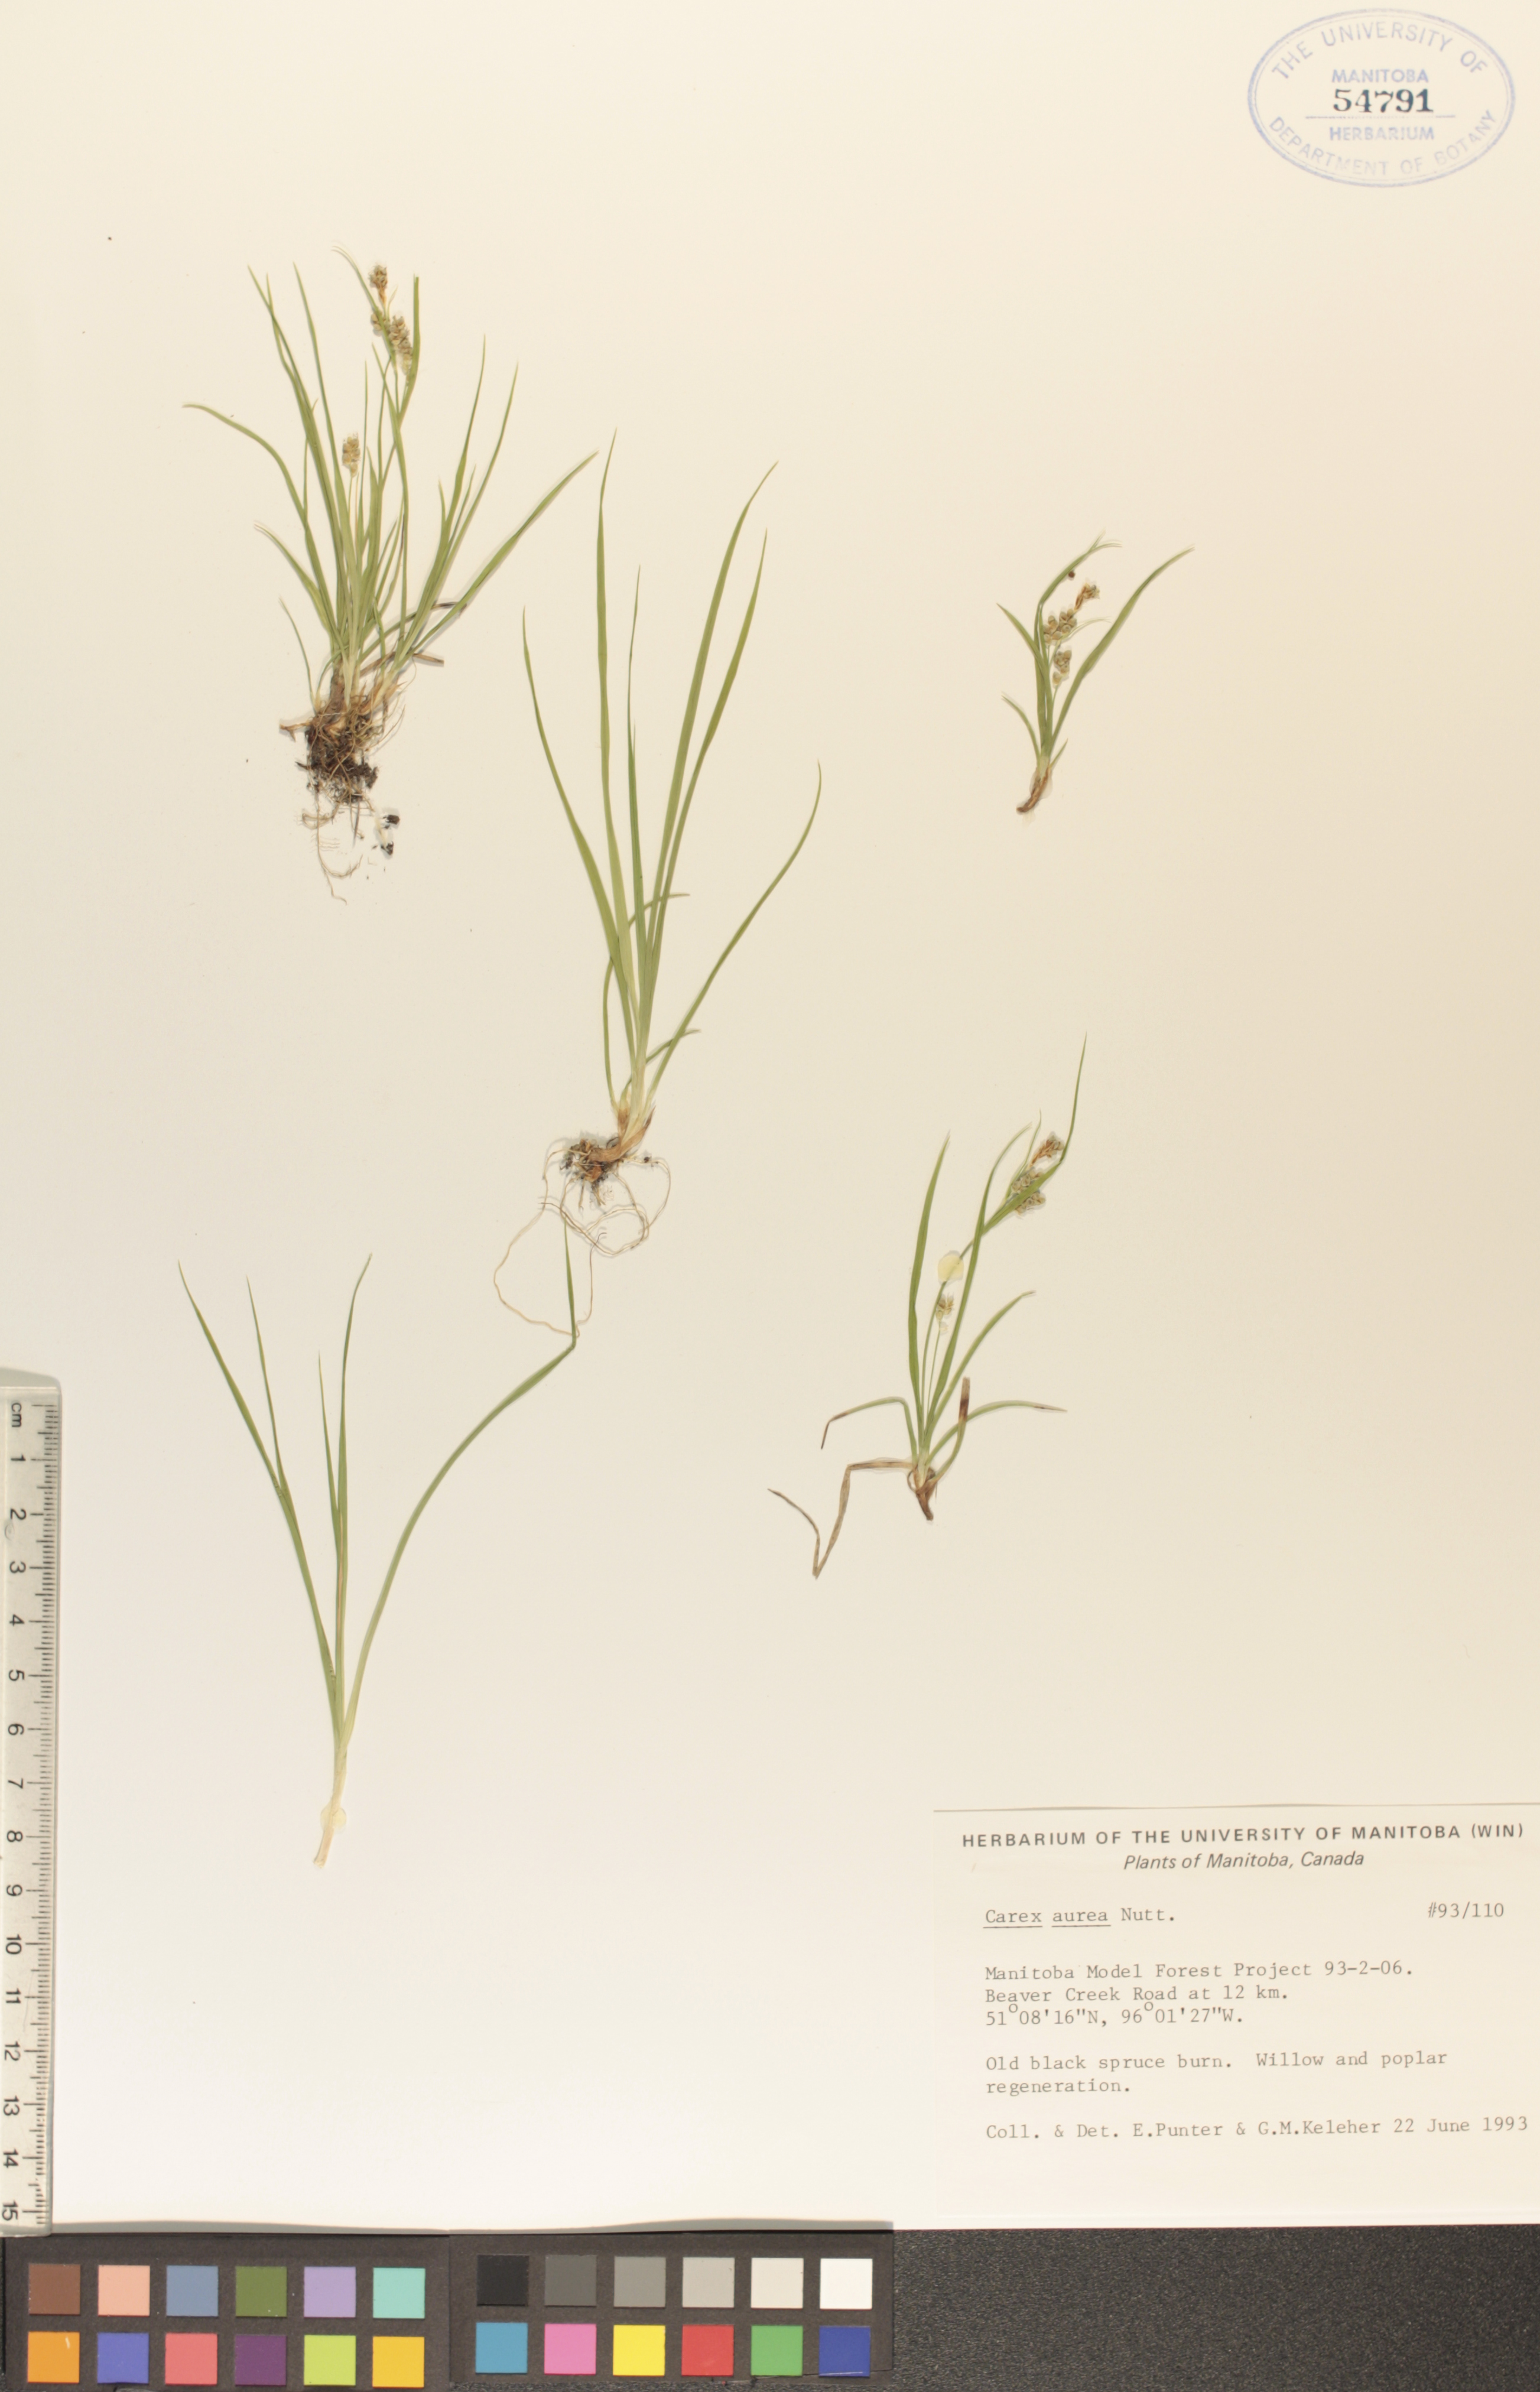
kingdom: Plantae
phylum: Tracheophyta
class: Liliopsida
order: Poales
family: Cyperaceae
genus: Carex
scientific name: Carex aurea
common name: Golden sedge
